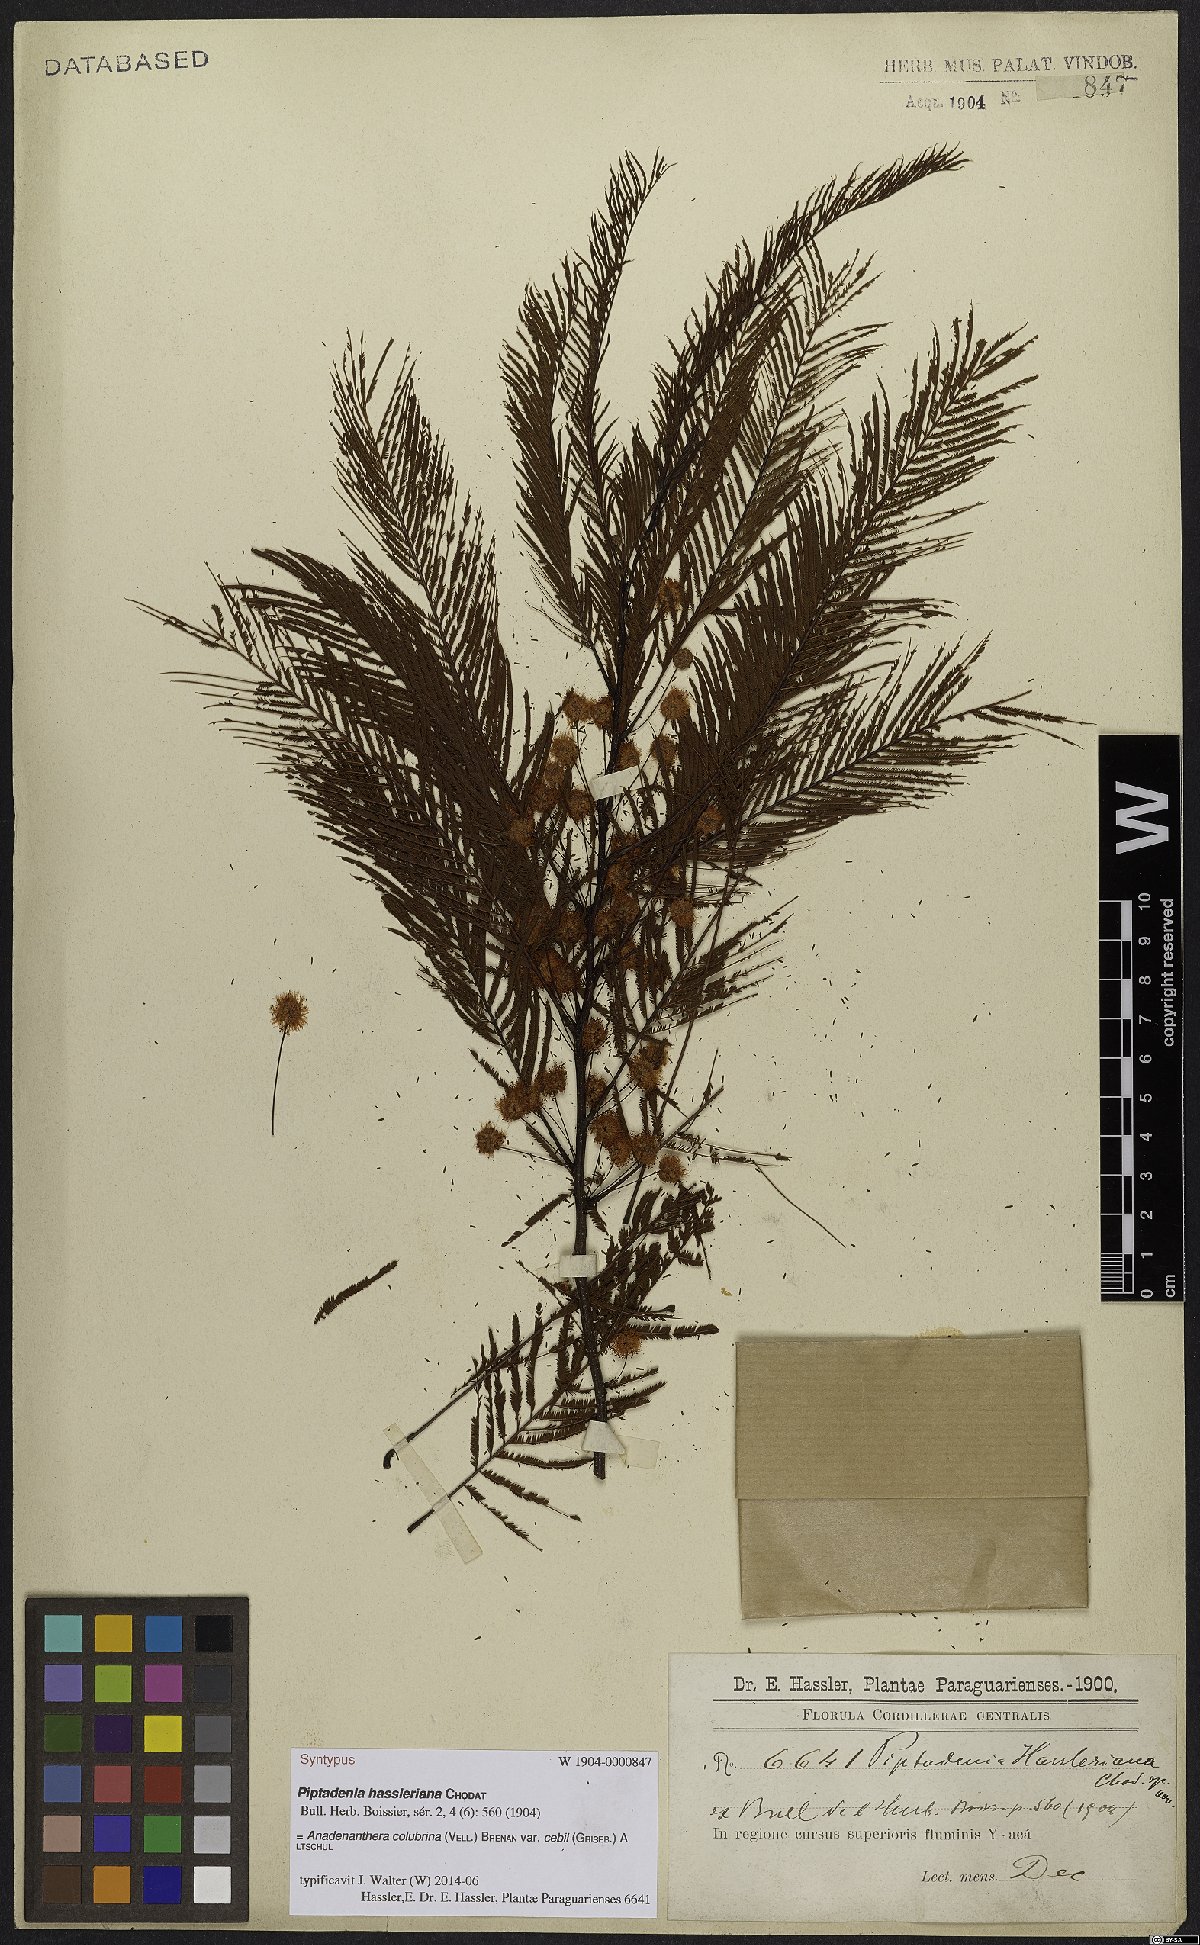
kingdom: Plantae
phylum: Tracheophyta
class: Magnoliopsida
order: Fabales
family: Fabaceae
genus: Anadenanthera
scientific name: Anadenanthera colubrina
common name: Curupay
